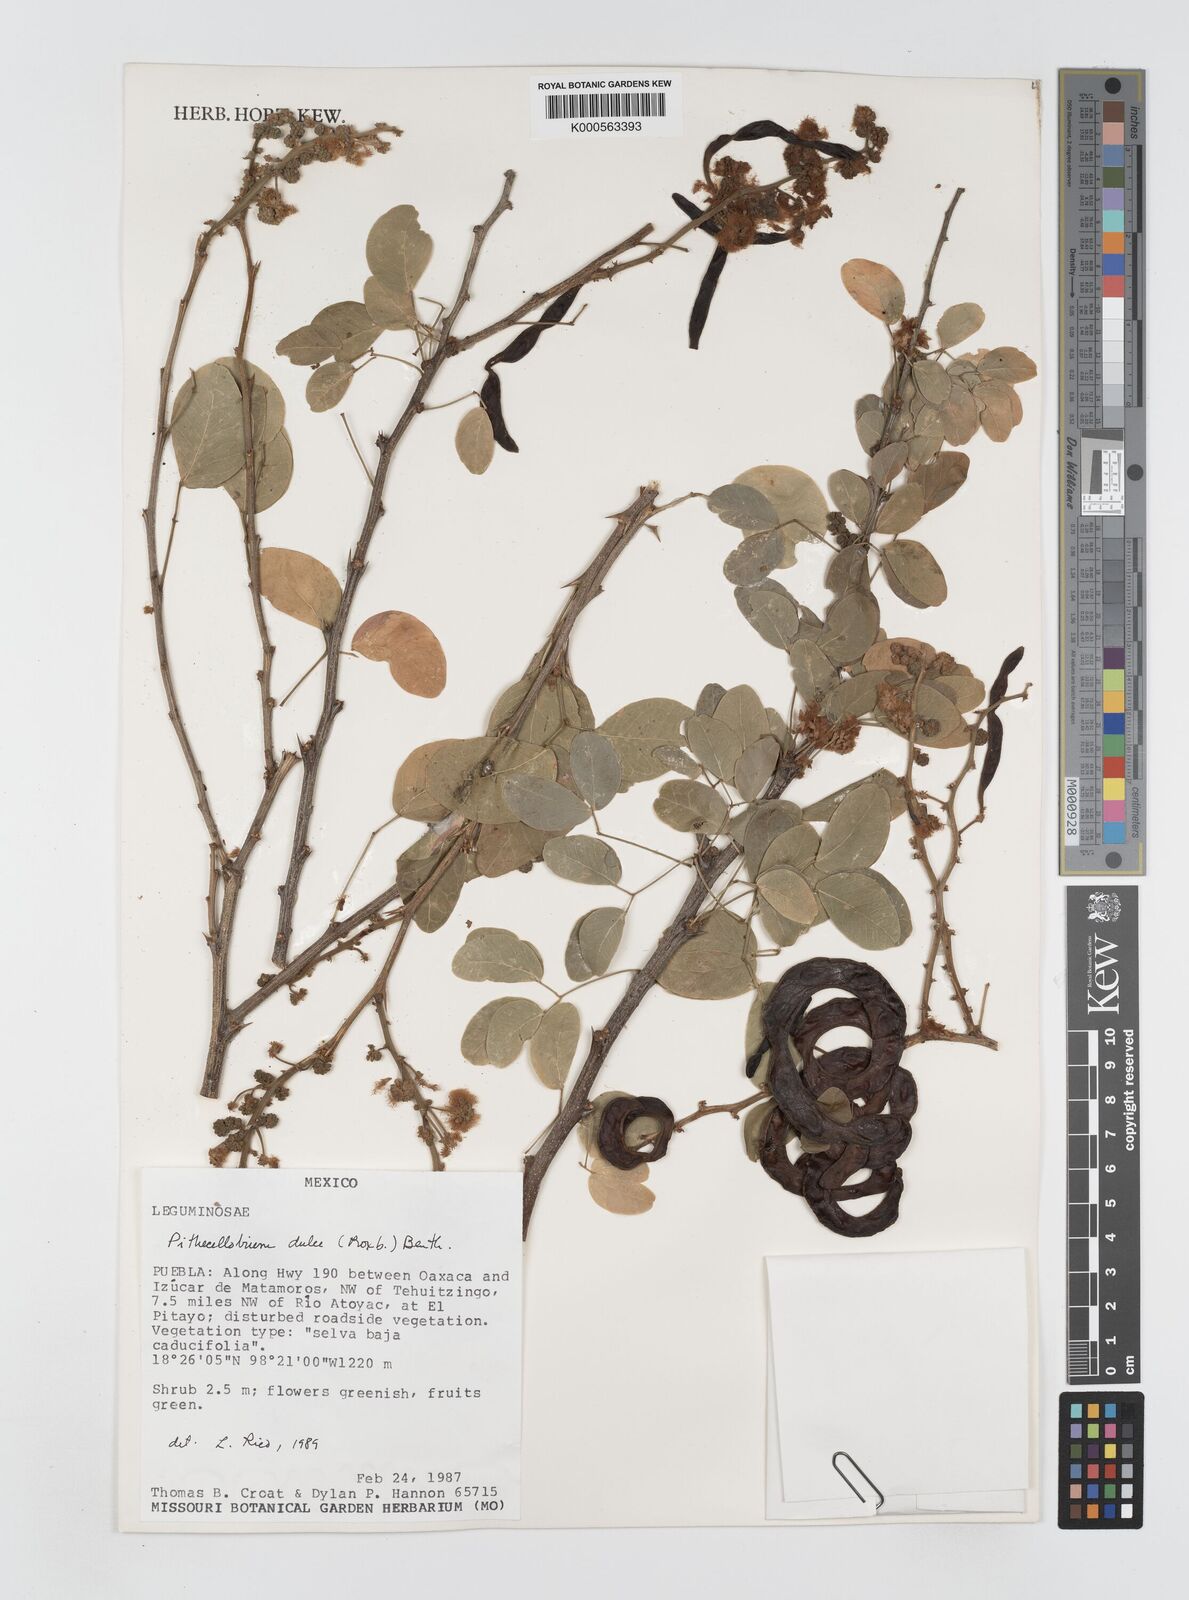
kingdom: Plantae
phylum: Tracheophyta
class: Magnoliopsida
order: Fabales
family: Fabaceae
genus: Pithecellobium
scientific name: Pithecellobium dulce
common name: Monkeypod
